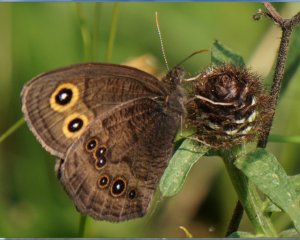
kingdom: Animalia
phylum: Arthropoda
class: Insecta
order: Lepidoptera
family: Nymphalidae
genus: Cercyonis
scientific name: Cercyonis pegala
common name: Common Wood-Nymph
